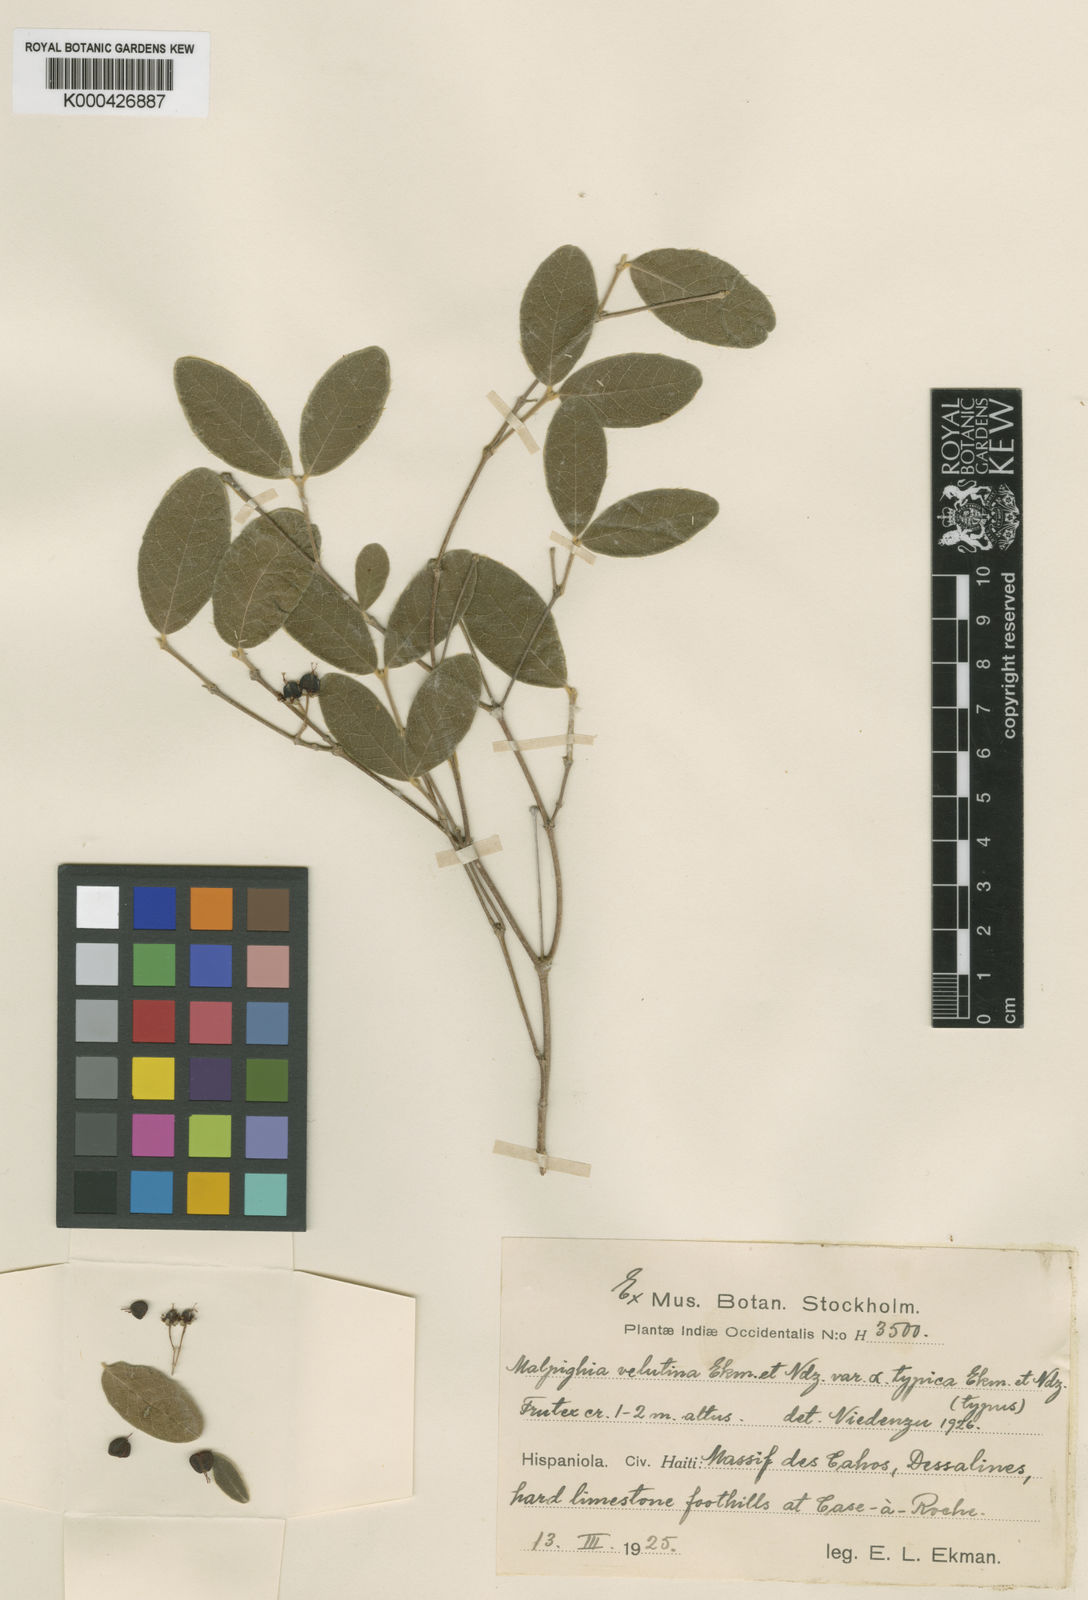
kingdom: Plantae
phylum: Tracheophyta
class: Magnoliopsida
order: Malpighiales
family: Malpighiaceae
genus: Malpighia
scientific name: Malpighia velutina
